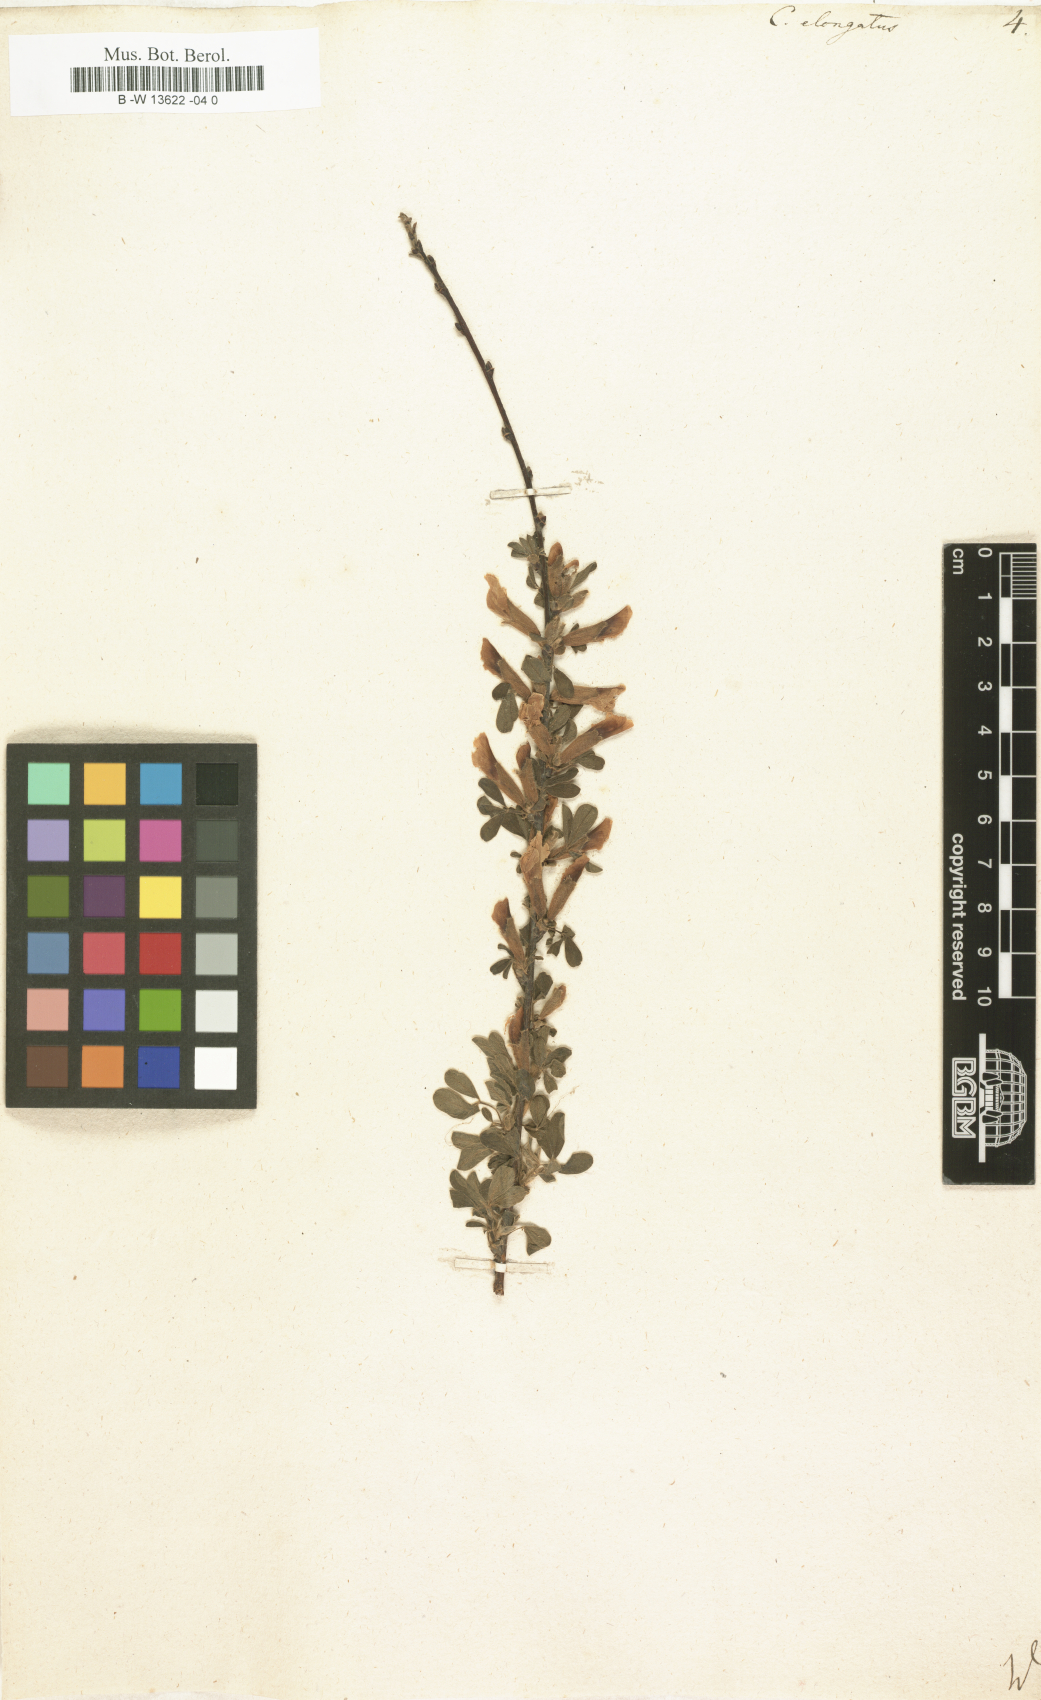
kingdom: Plantae
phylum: Tracheophyta
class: Magnoliopsida
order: Fabales
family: Fabaceae
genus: Chamaecytisus
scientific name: Chamaecytisus
